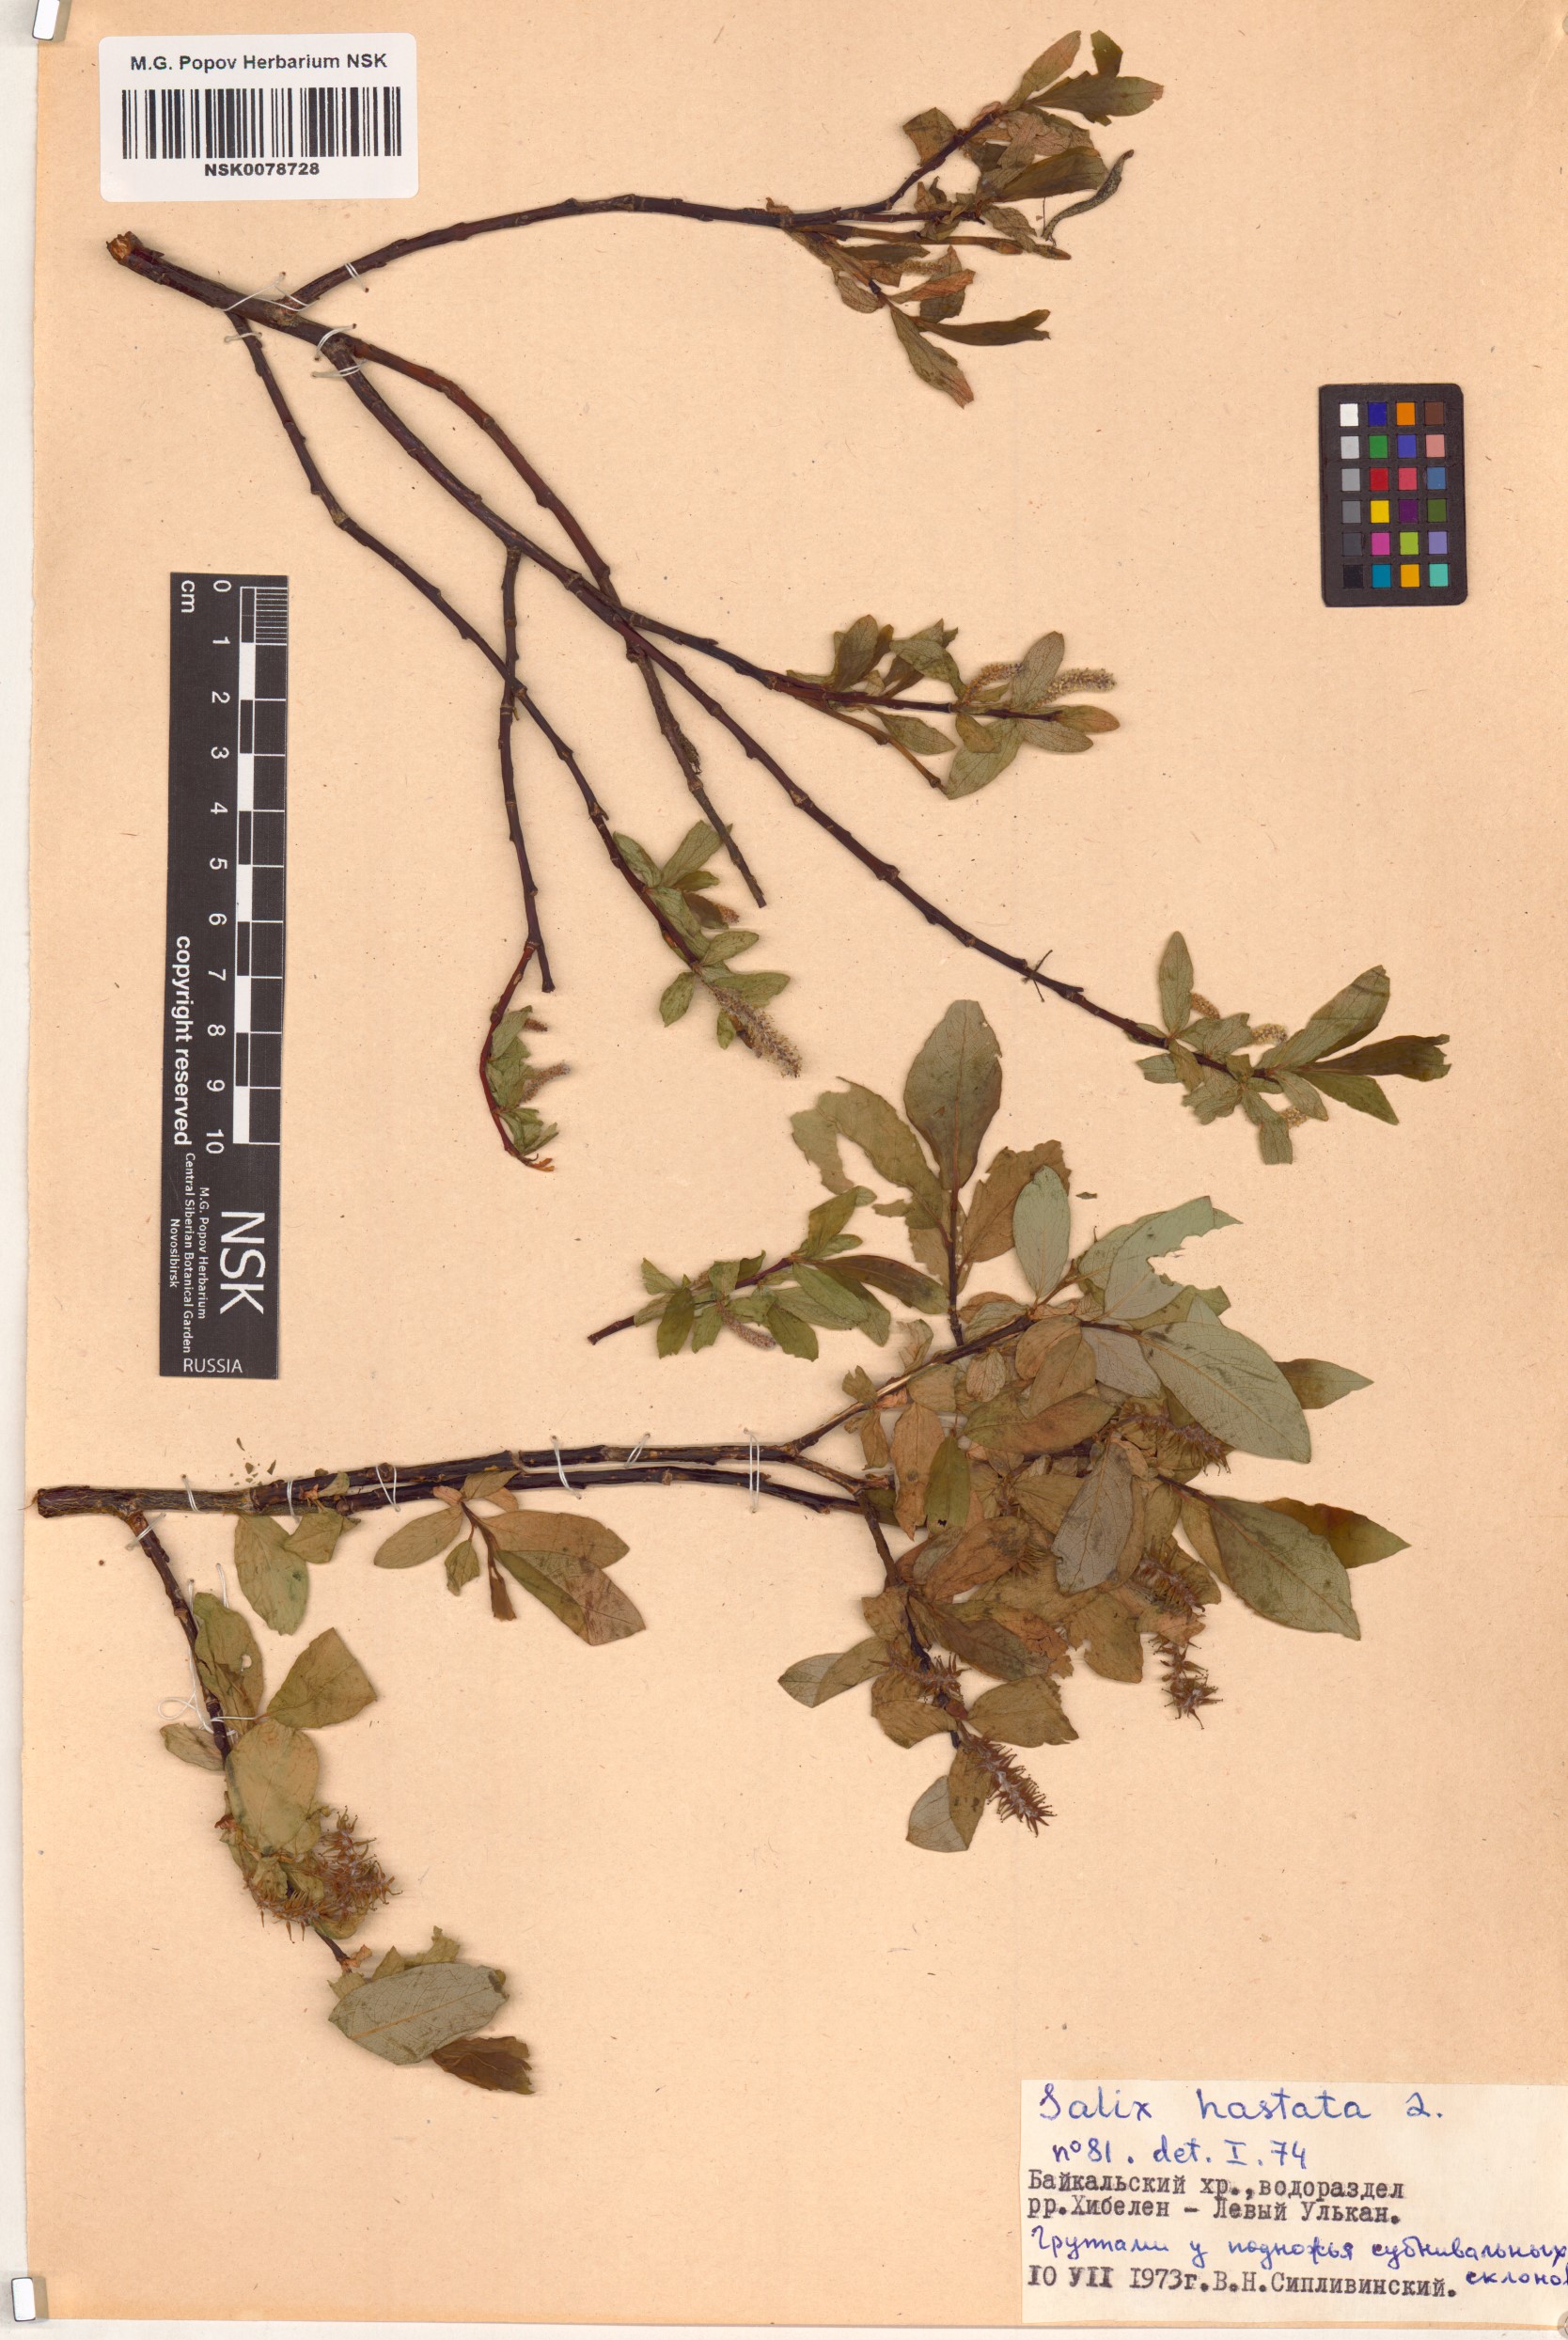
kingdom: Plantae
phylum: Tracheophyta
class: Magnoliopsida
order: Malpighiales
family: Salicaceae
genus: Salix
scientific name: Salix hastata
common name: Halberd willow
